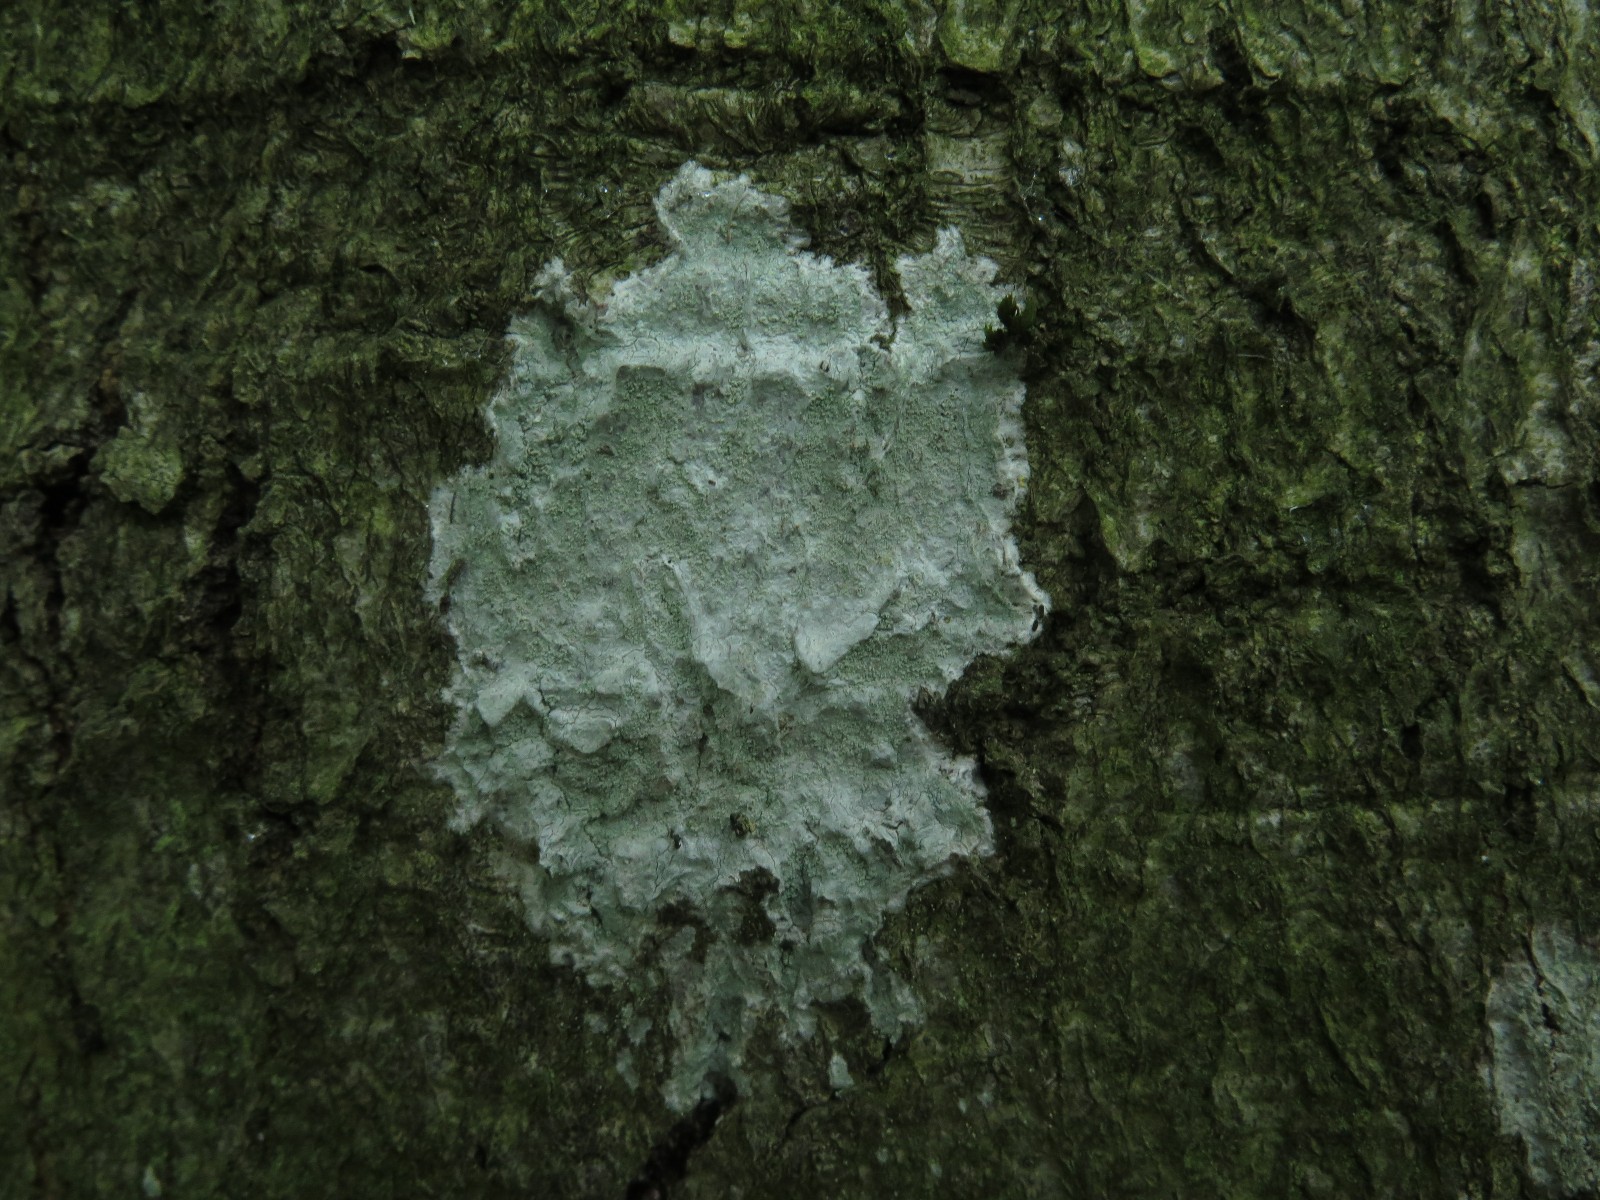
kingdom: Fungi
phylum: Ascomycota
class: Lecanoromycetes
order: Ostropales
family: Phlyctidaceae
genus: Phlyctis
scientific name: Phlyctis argena
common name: almindelig sølvlav
